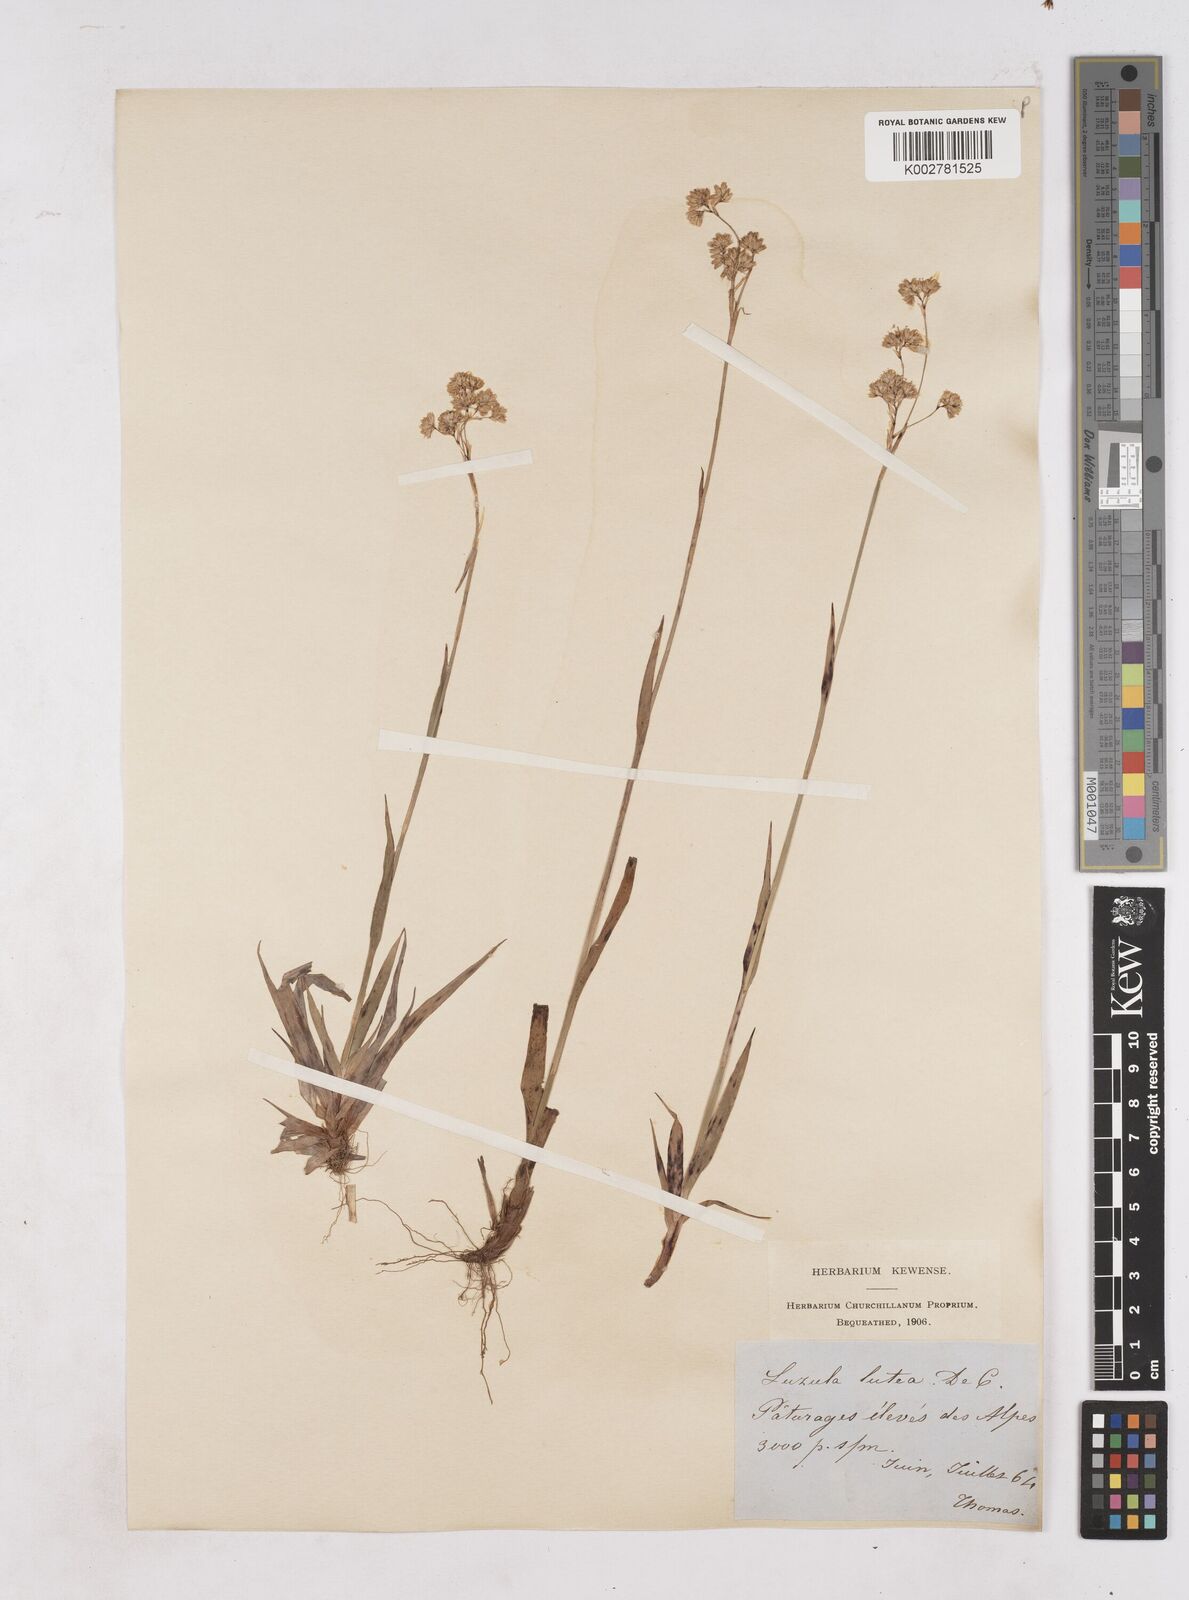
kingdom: Plantae
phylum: Tracheophyta
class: Liliopsida
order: Poales
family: Juncaceae
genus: Luzula
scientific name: Luzula lutea
